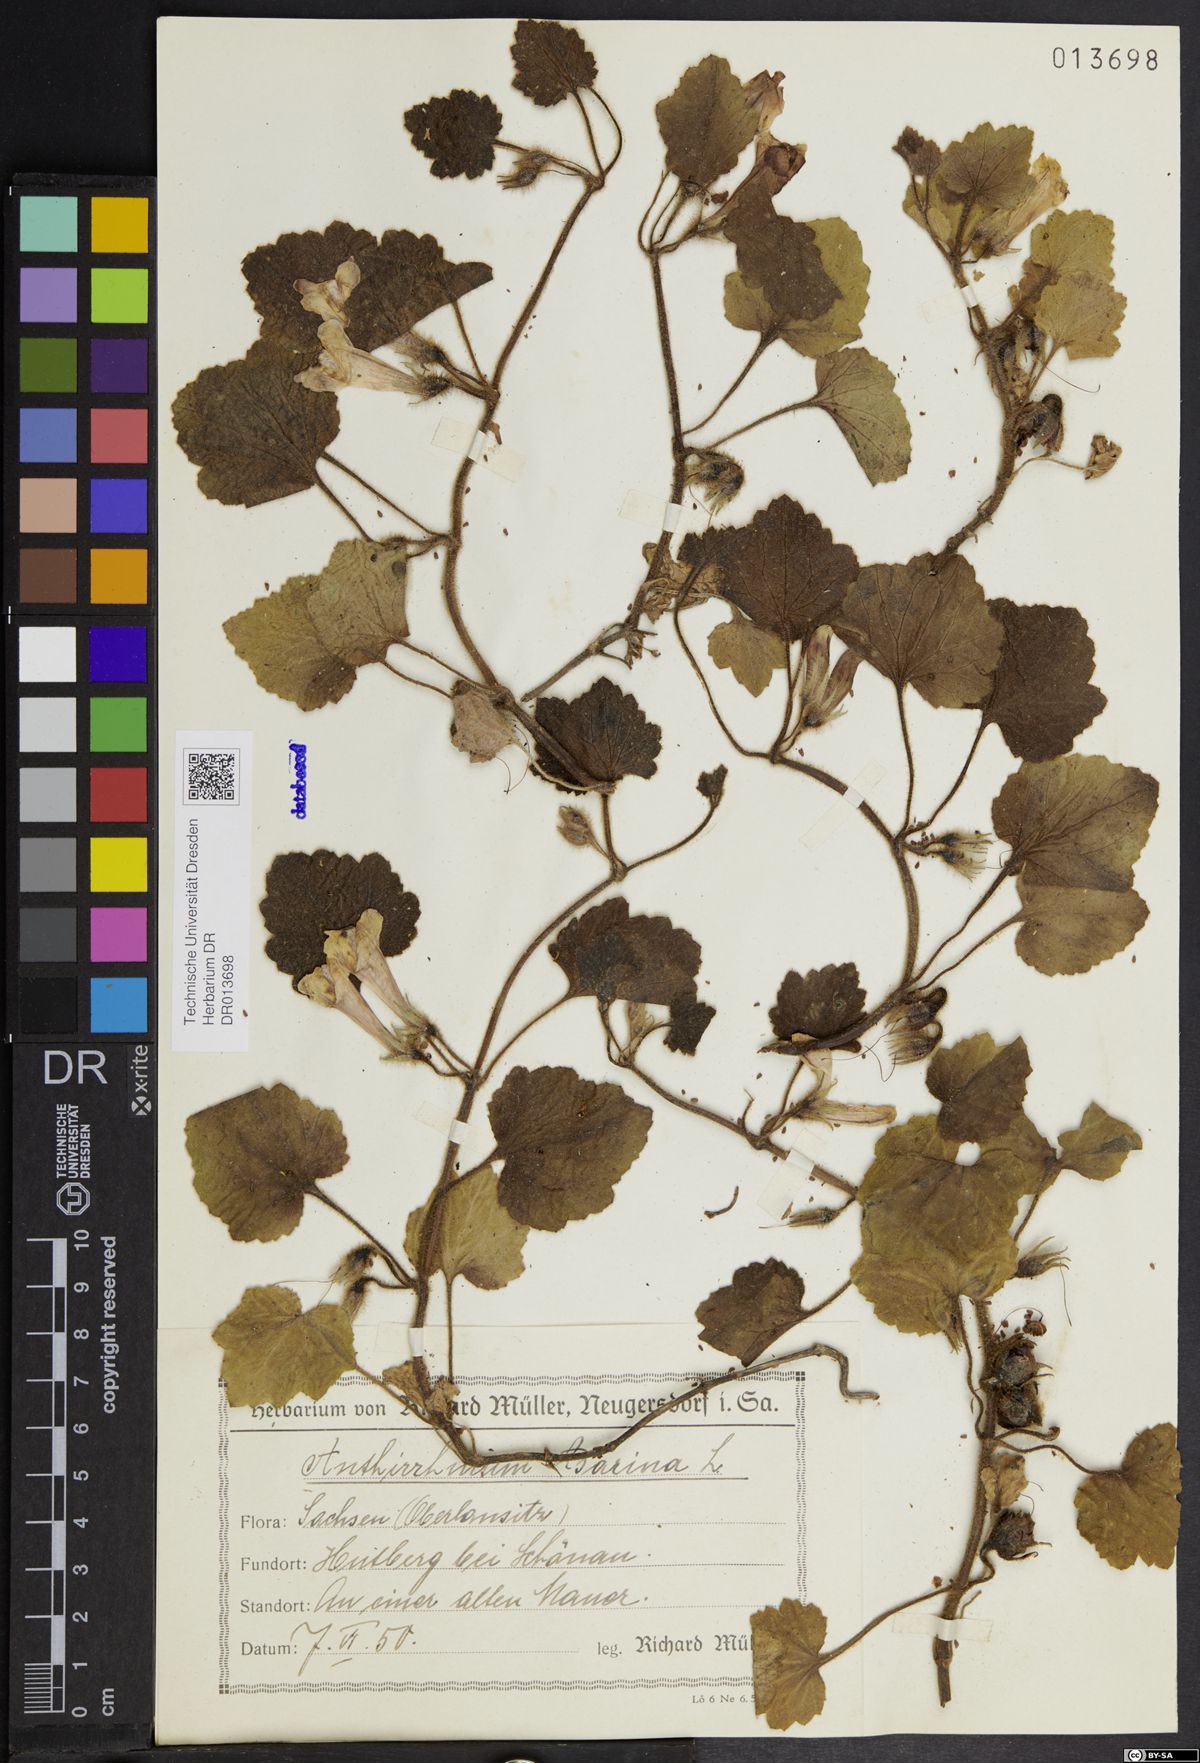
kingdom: Plantae
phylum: Tracheophyta
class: Magnoliopsida
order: Lamiales
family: Plantaginaceae
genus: Asarina
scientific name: Asarina procumbens
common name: Trailing snapdragon
